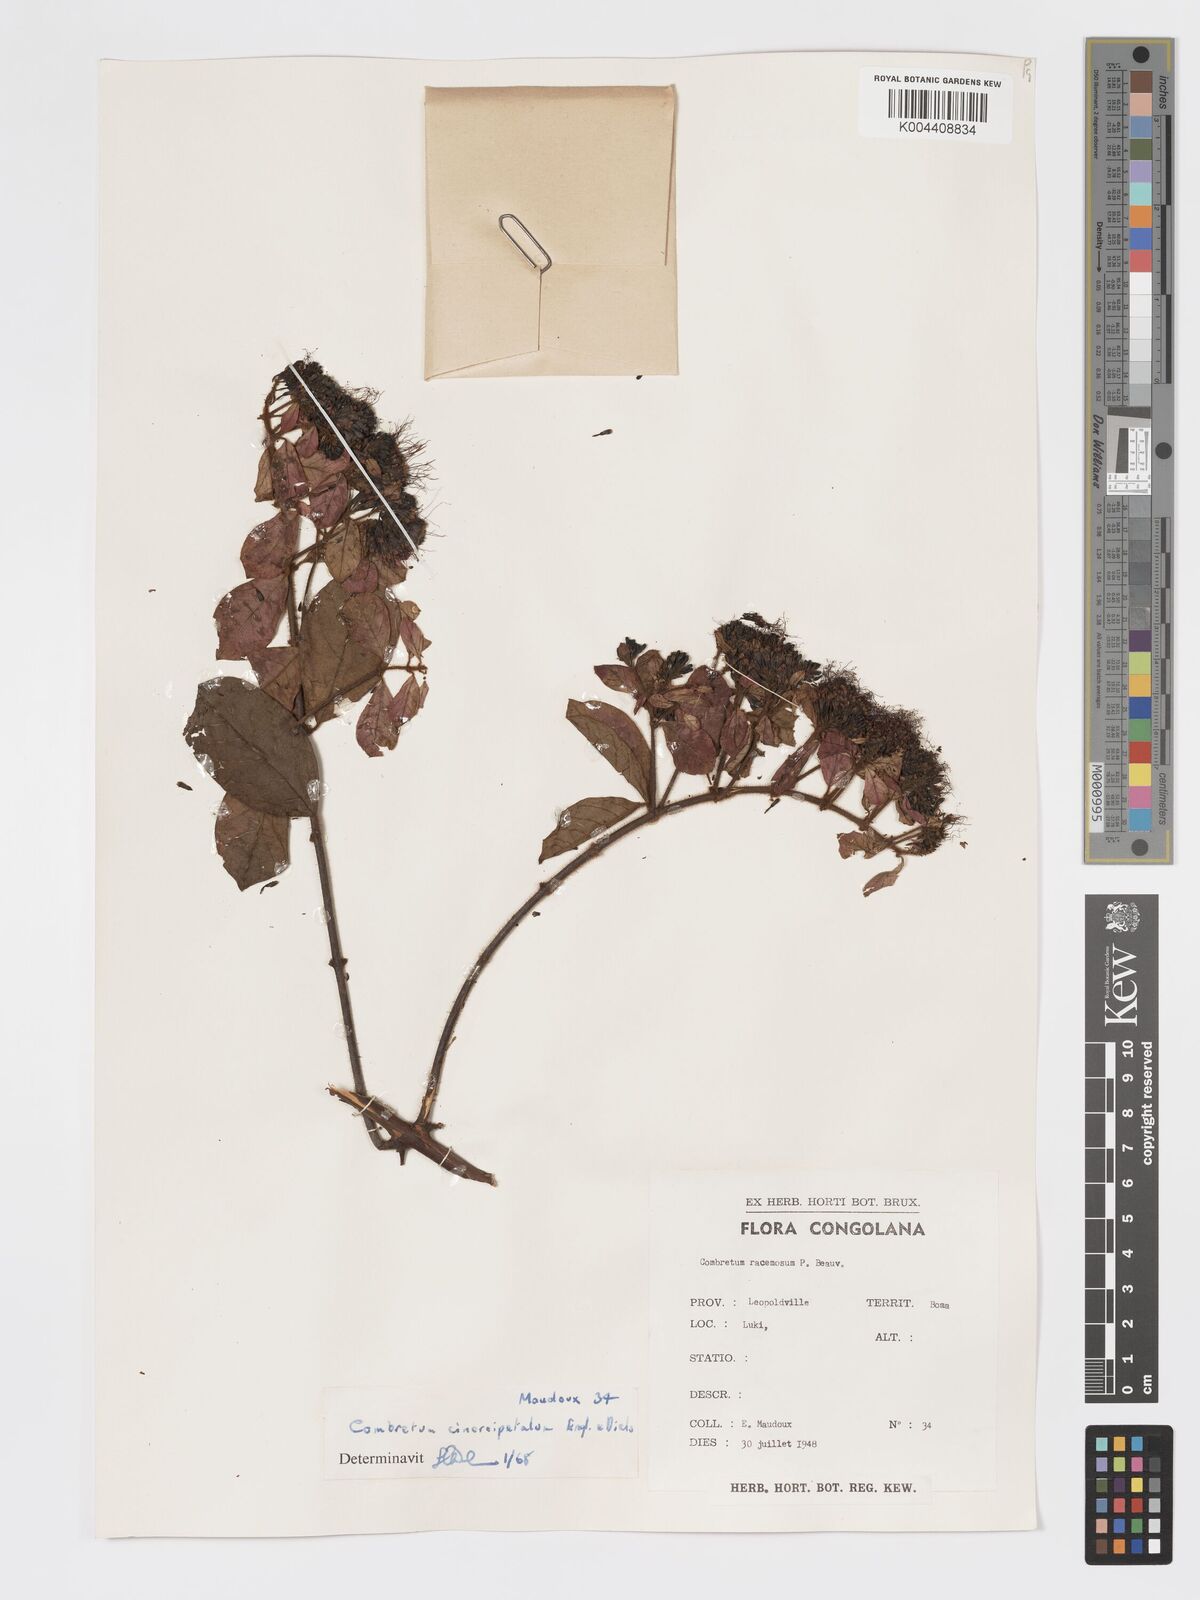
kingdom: Plantae
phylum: Tracheophyta
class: Magnoliopsida
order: Myrtales
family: Combretaceae
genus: Combretum
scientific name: Combretum racemosum
